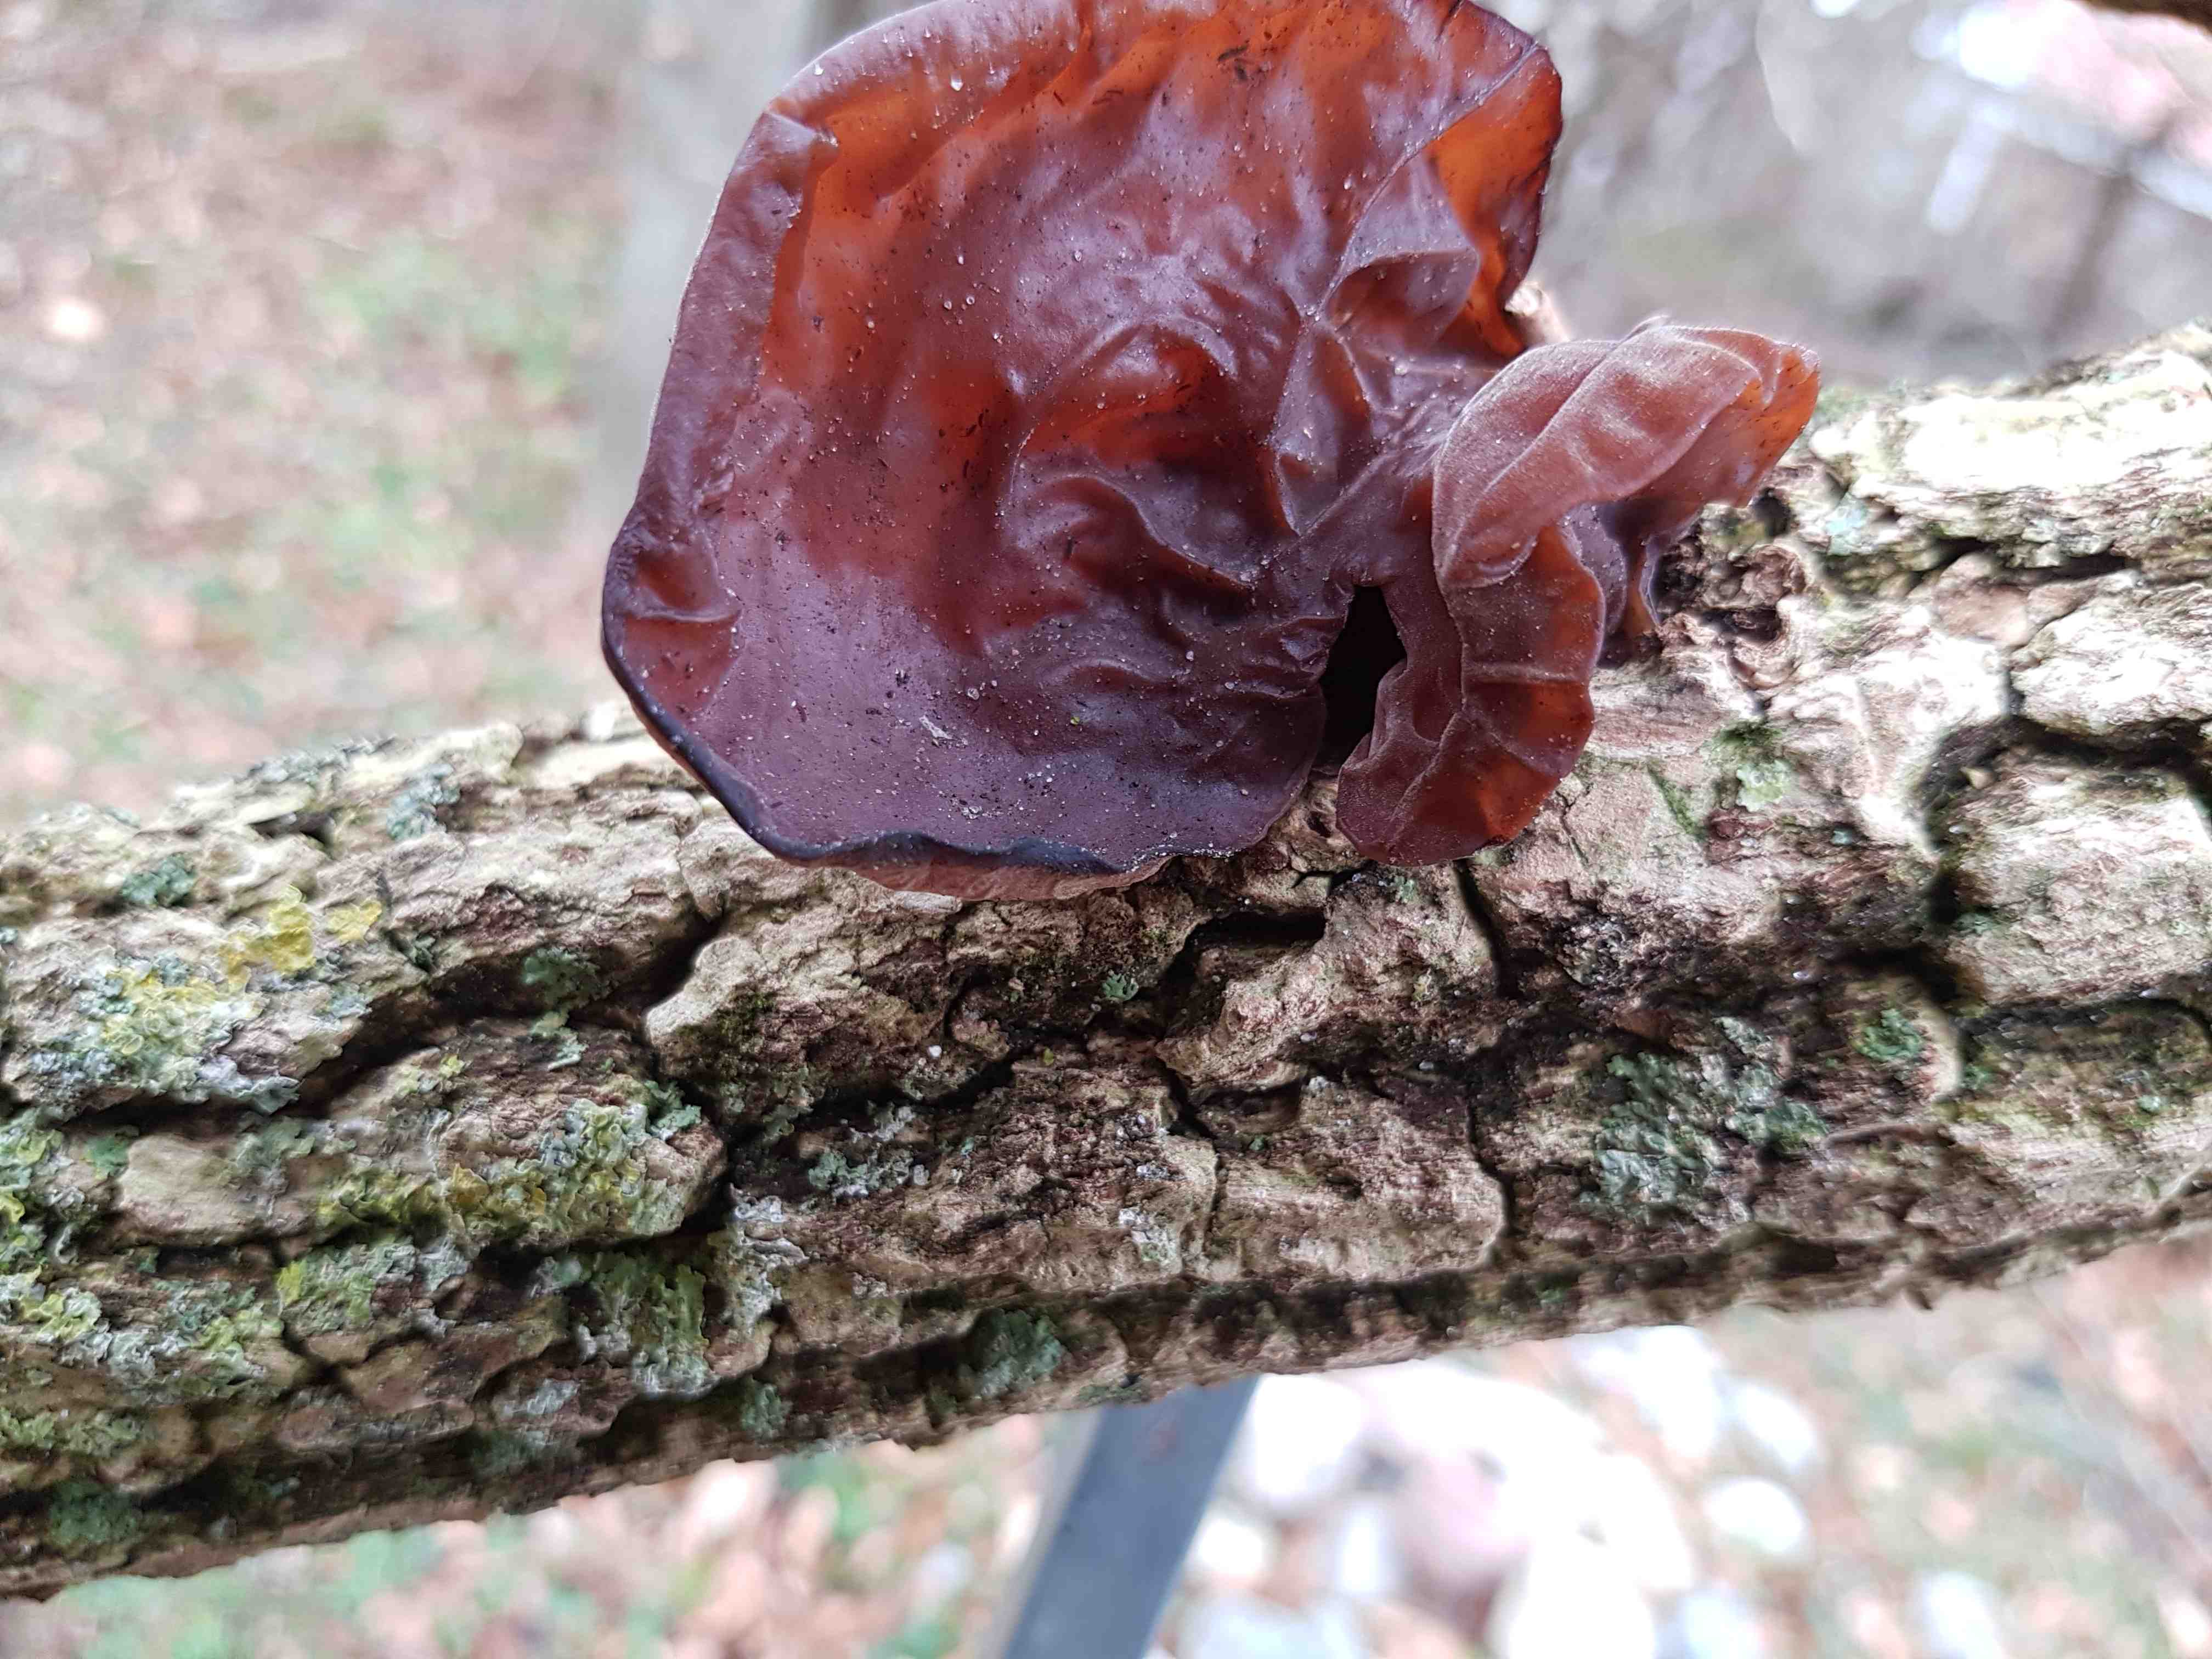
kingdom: Fungi
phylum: Basidiomycota
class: Agaricomycetes
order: Auriculariales
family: Auriculariaceae
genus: Auricularia
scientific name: Auricularia auricula-judae
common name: almindelig judasøre
